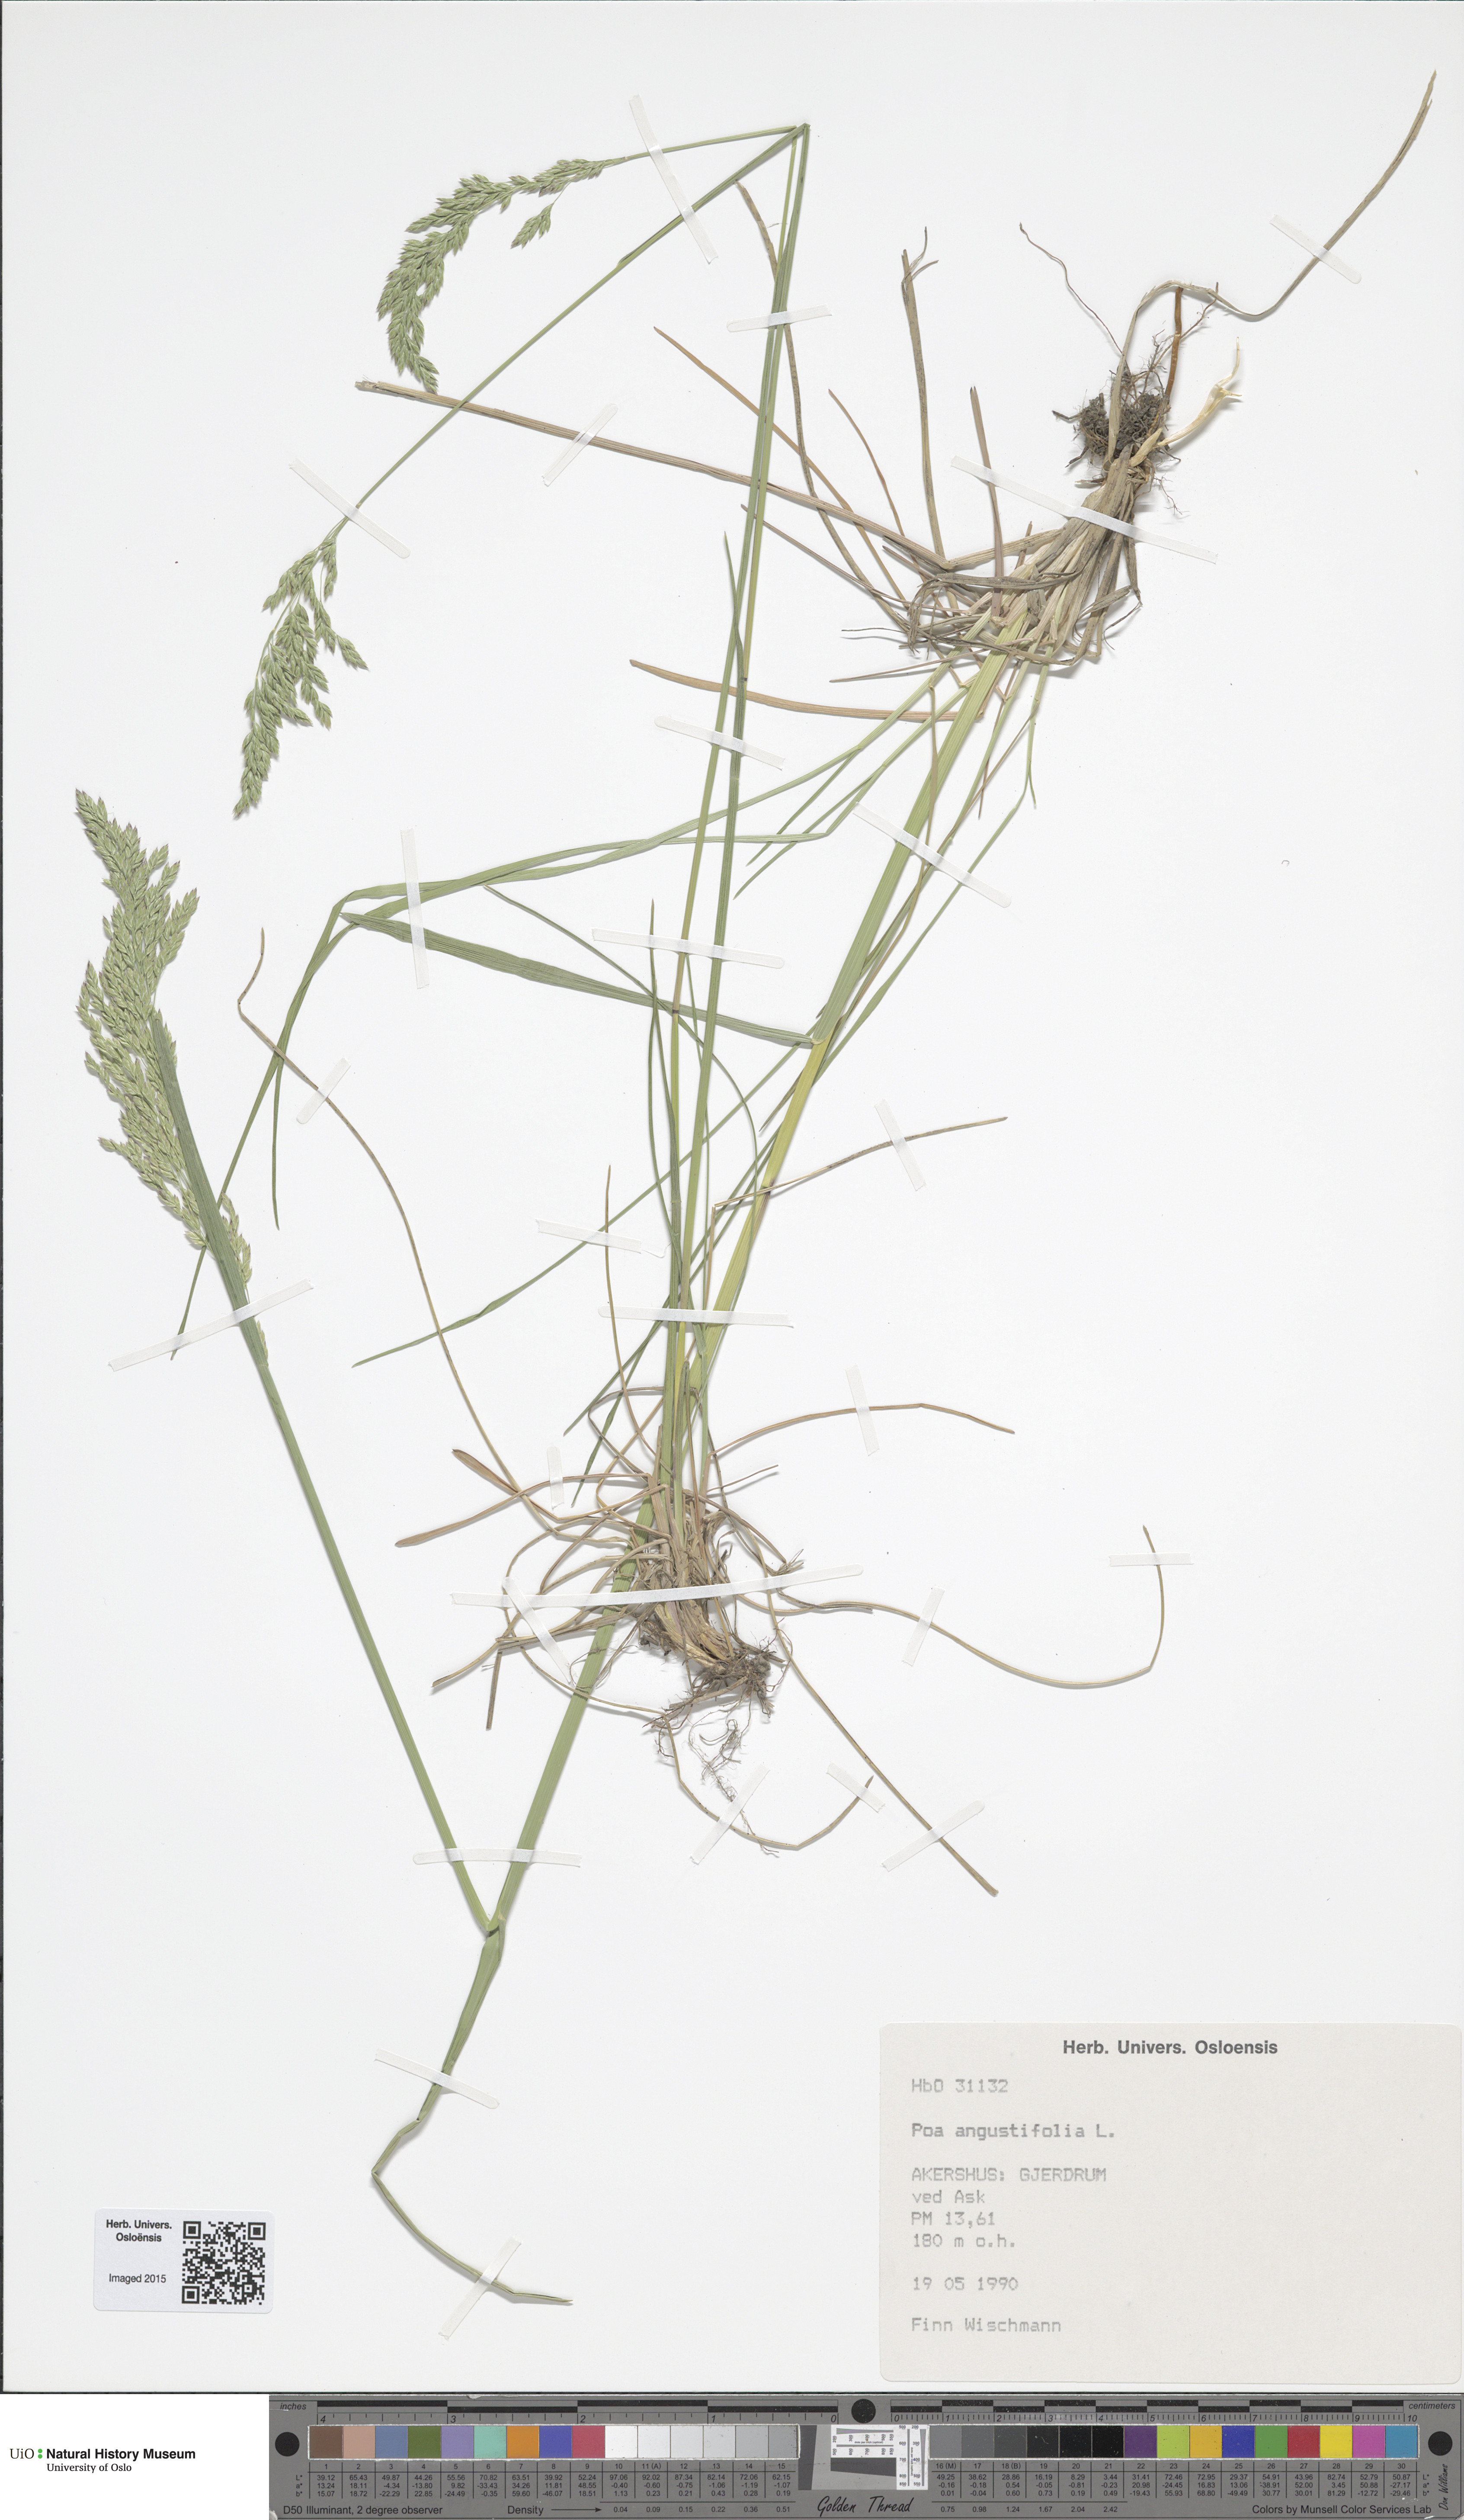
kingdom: Plantae
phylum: Tracheophyta
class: Liliopsida
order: Poales
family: Poaceae
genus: Poa
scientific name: Poa angustifolia
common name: Narrow-leaved meadow-grass
